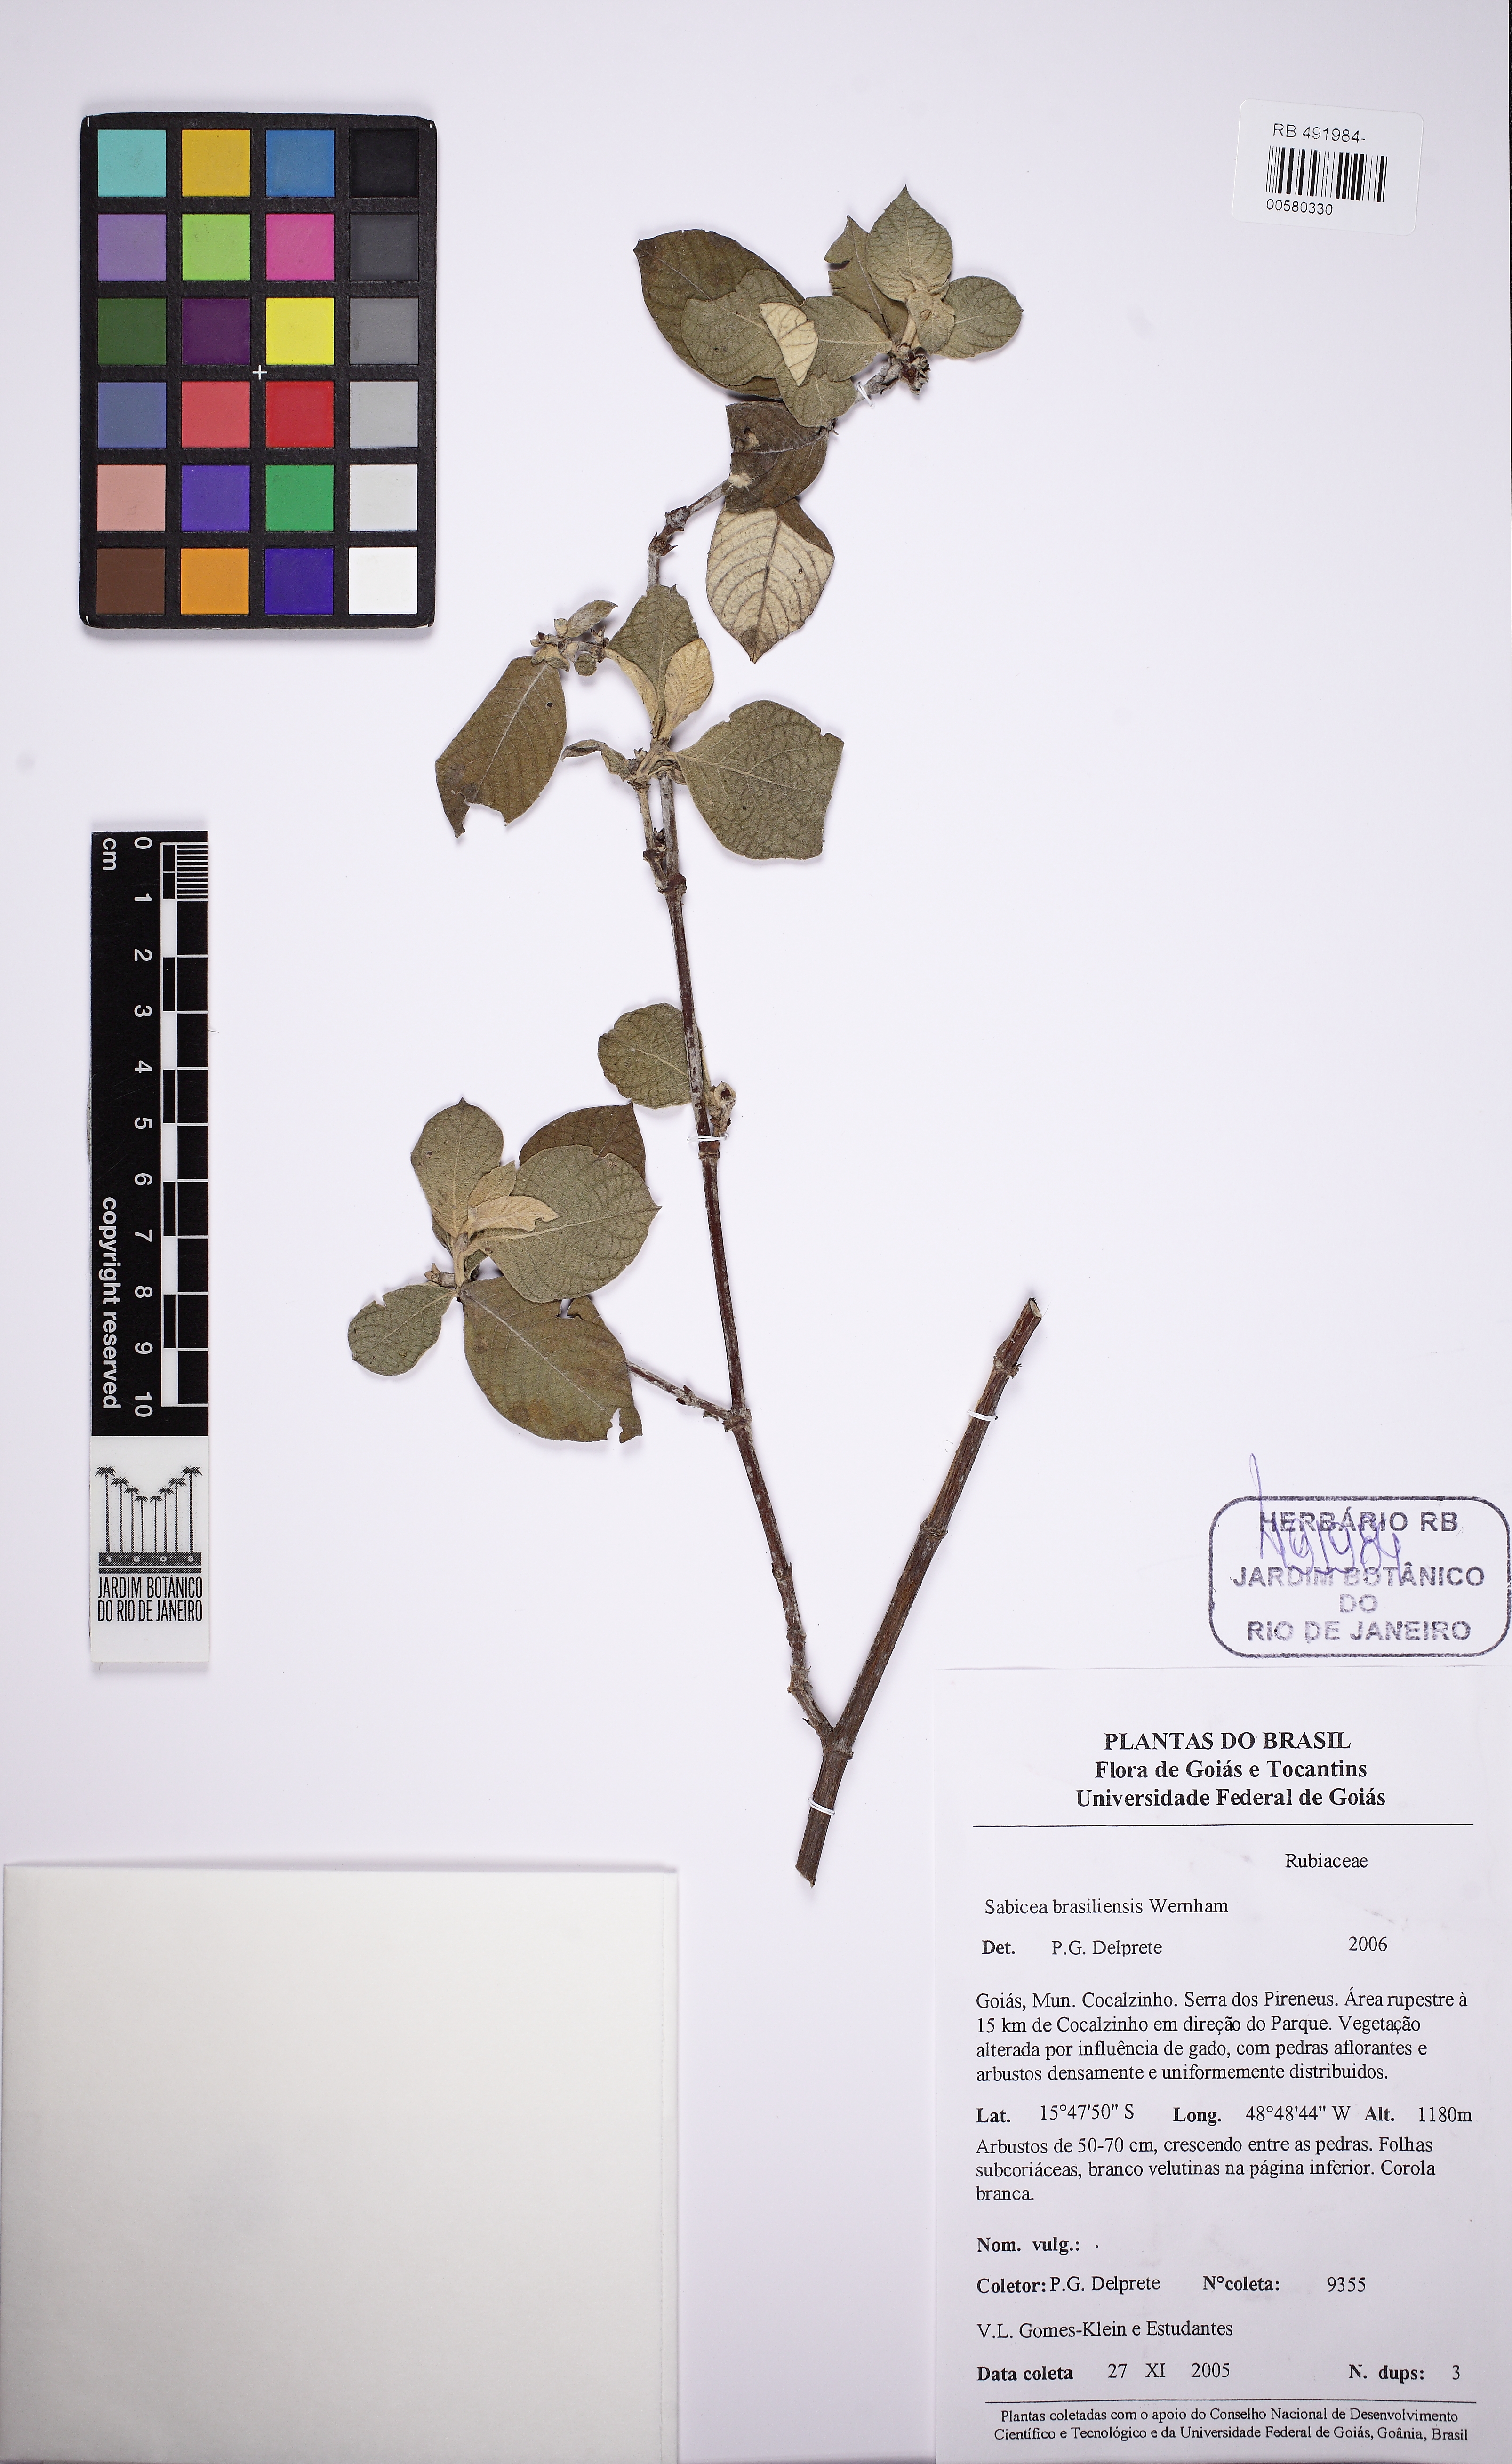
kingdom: Plantae
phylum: Tracheophyta
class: Magnoliopsida
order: Gentianales
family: Rubiaceae
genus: Sabicea
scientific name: Sabicea brasiliensis
